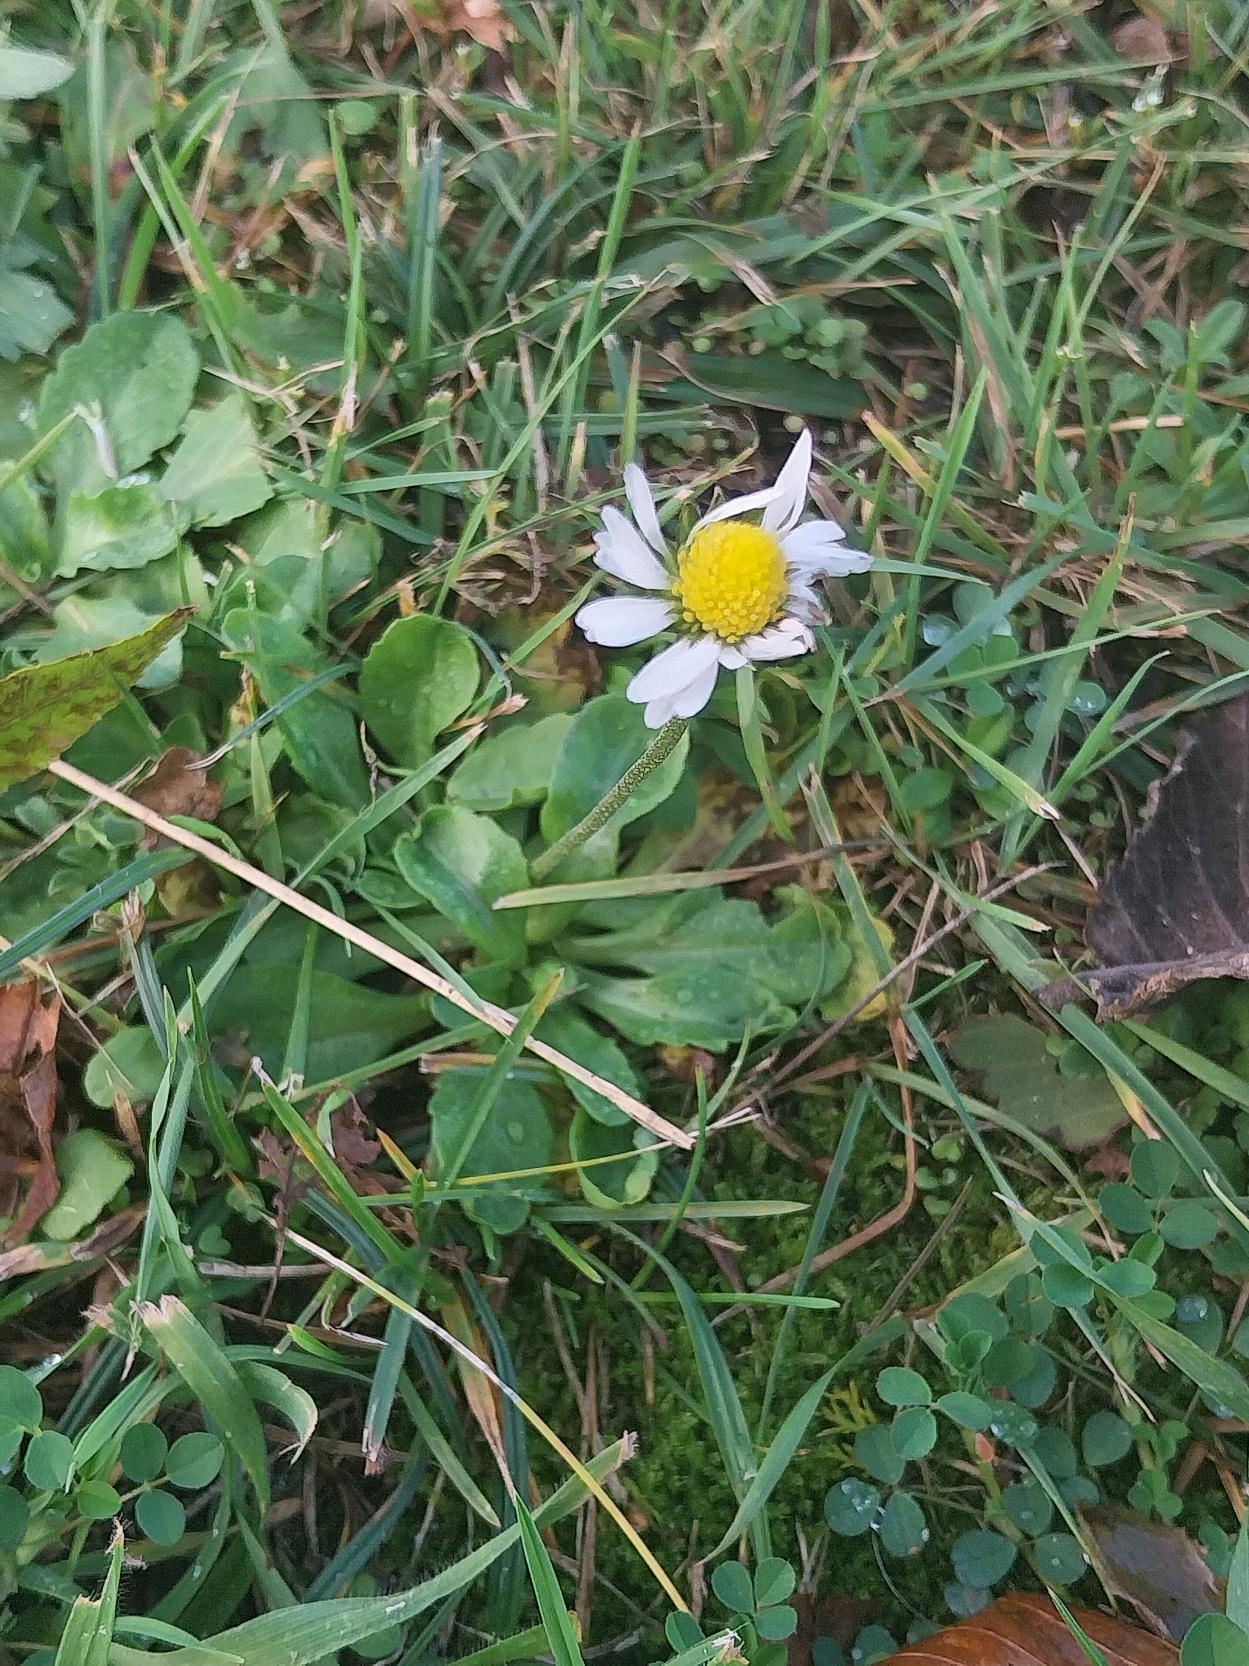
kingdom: Plantae
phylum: Tracheophyta
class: Magnoliopsida
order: Asterales
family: Asteraceae
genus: Bellis
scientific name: Bellis perennis
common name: Tusindfryd
